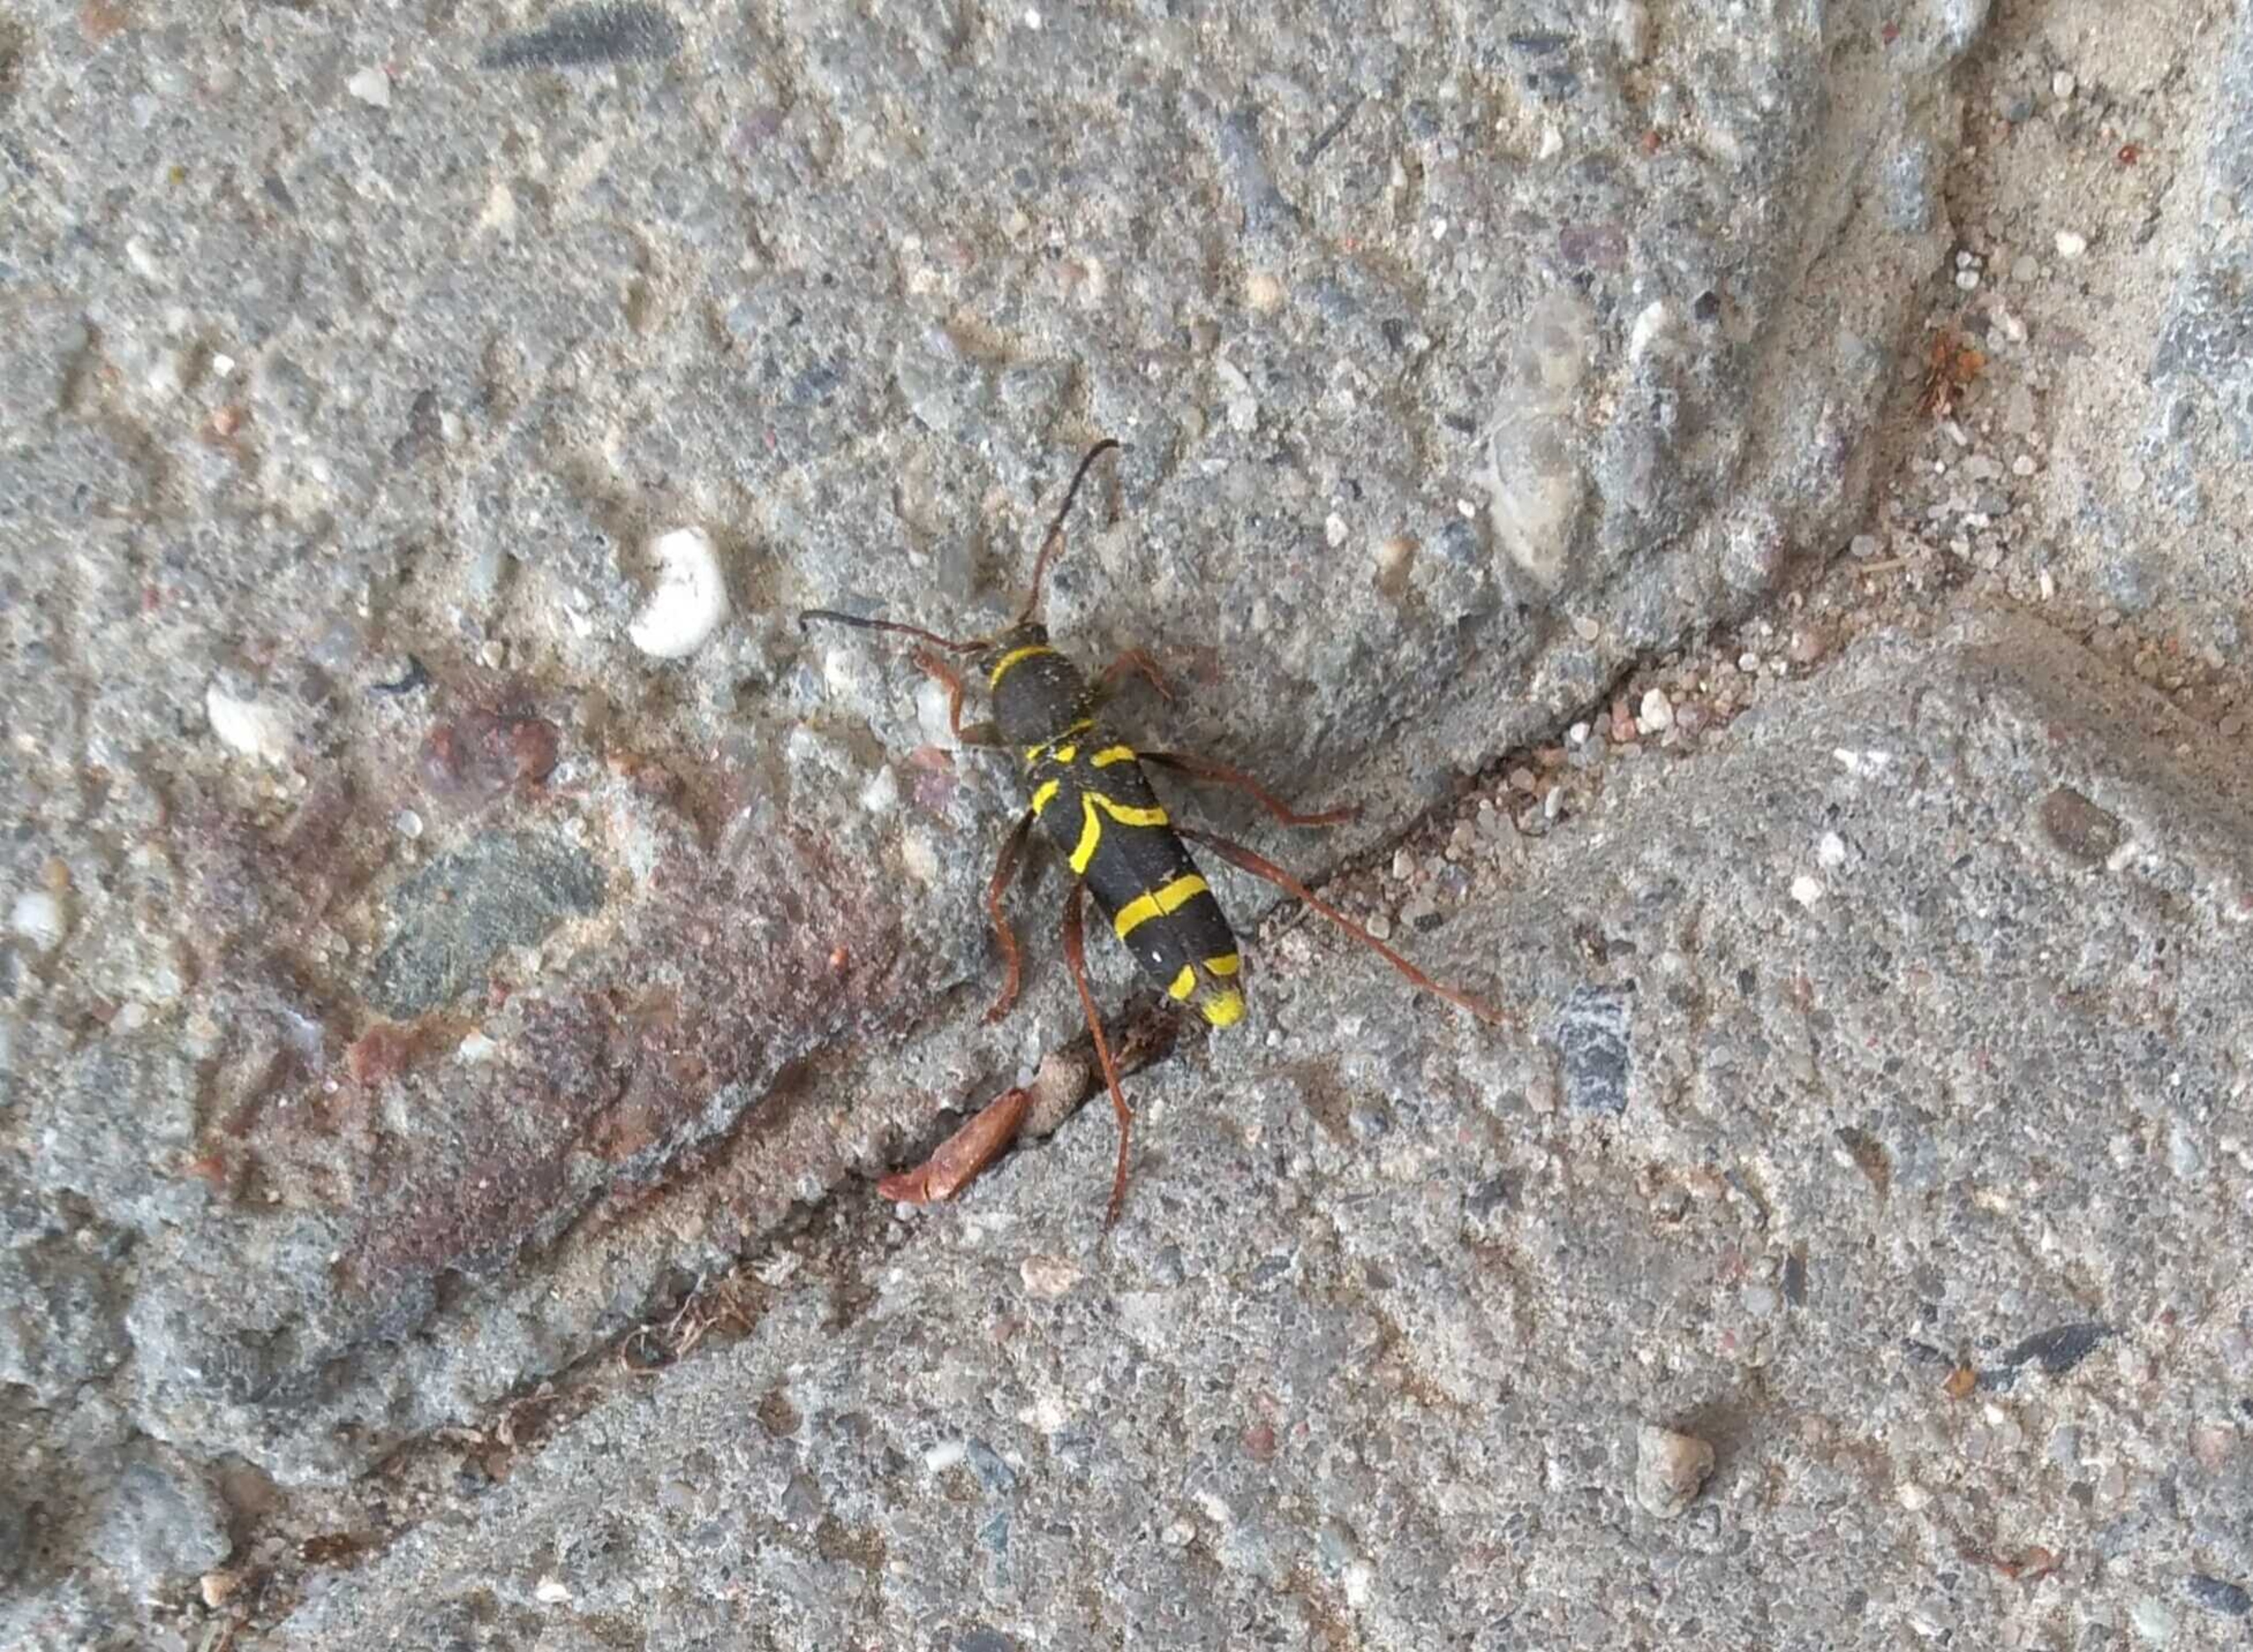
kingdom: Animalia
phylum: Arthropoda
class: Insecta
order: Coleoptera
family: Cerambycidae
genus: Clytus
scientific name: Clytus arietis
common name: Lille hvepsebuk
